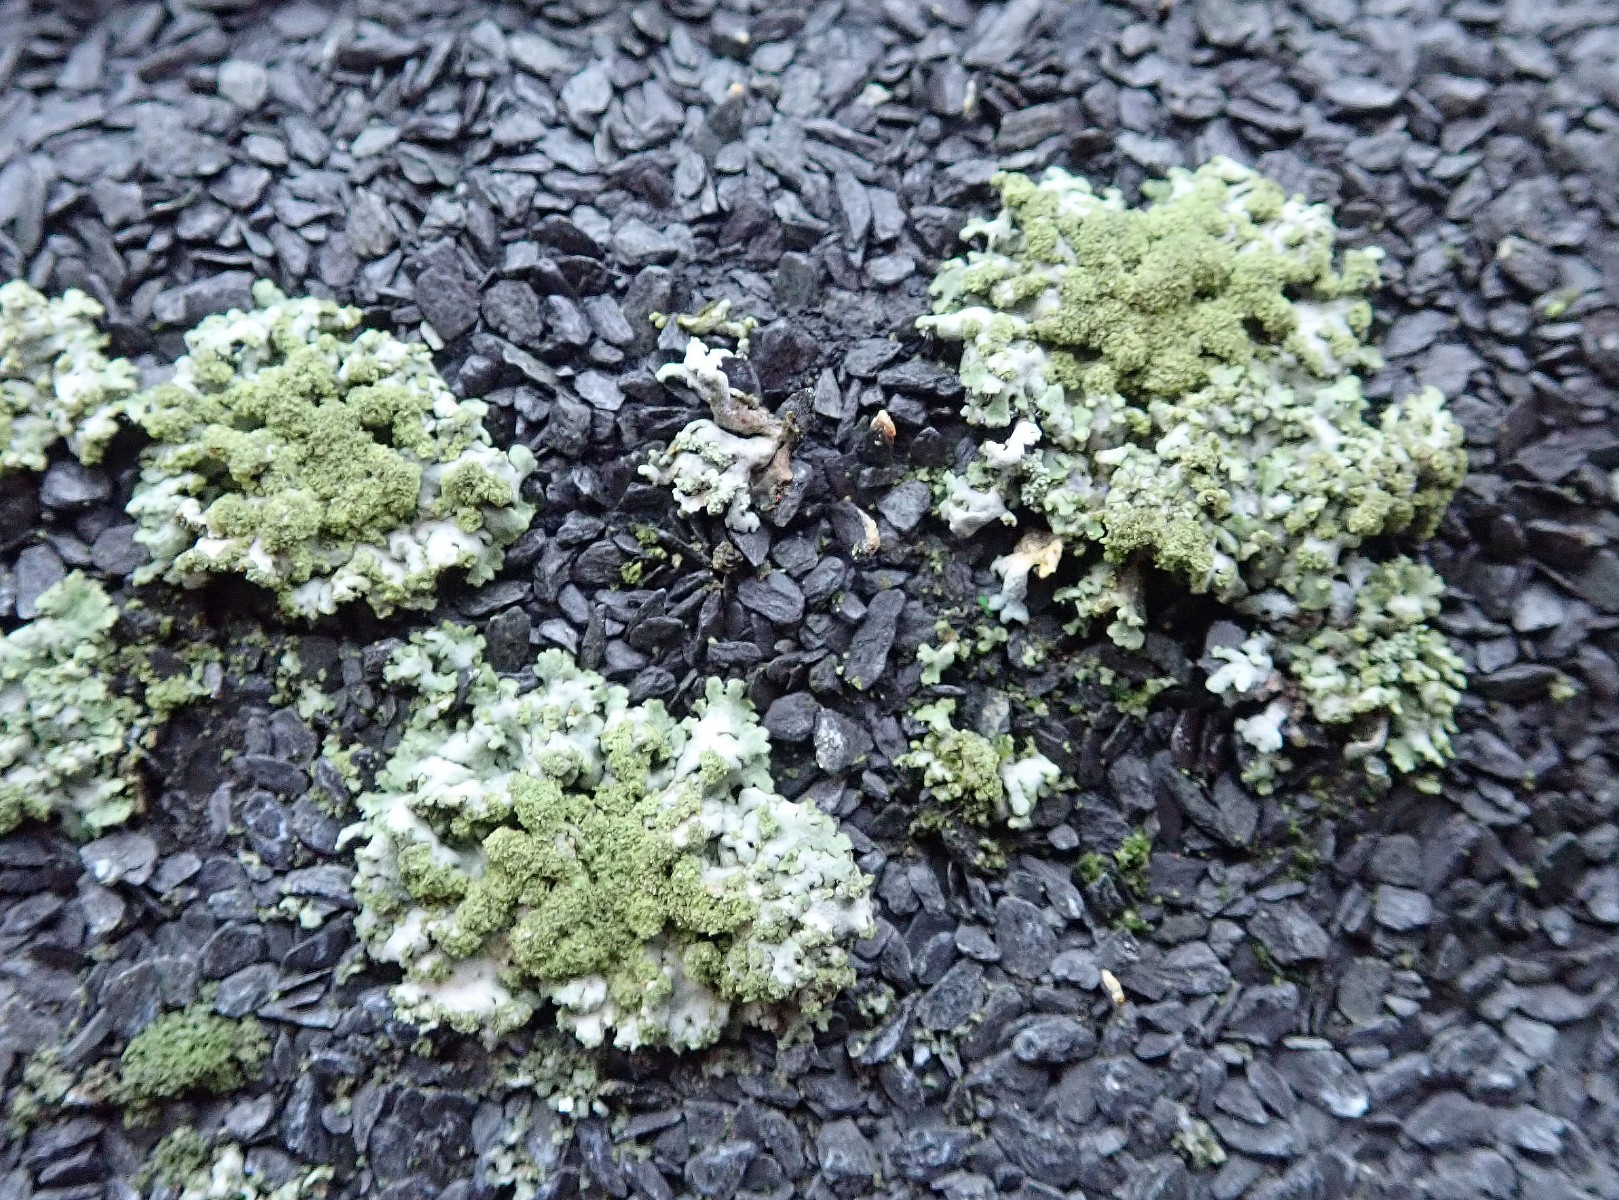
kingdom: Fungi
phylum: Ascomycota
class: Lecanoromycetes
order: Caliciales
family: Physciaceae
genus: Physcia
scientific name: Physcia dubia
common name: fuglestens-rosetlav
